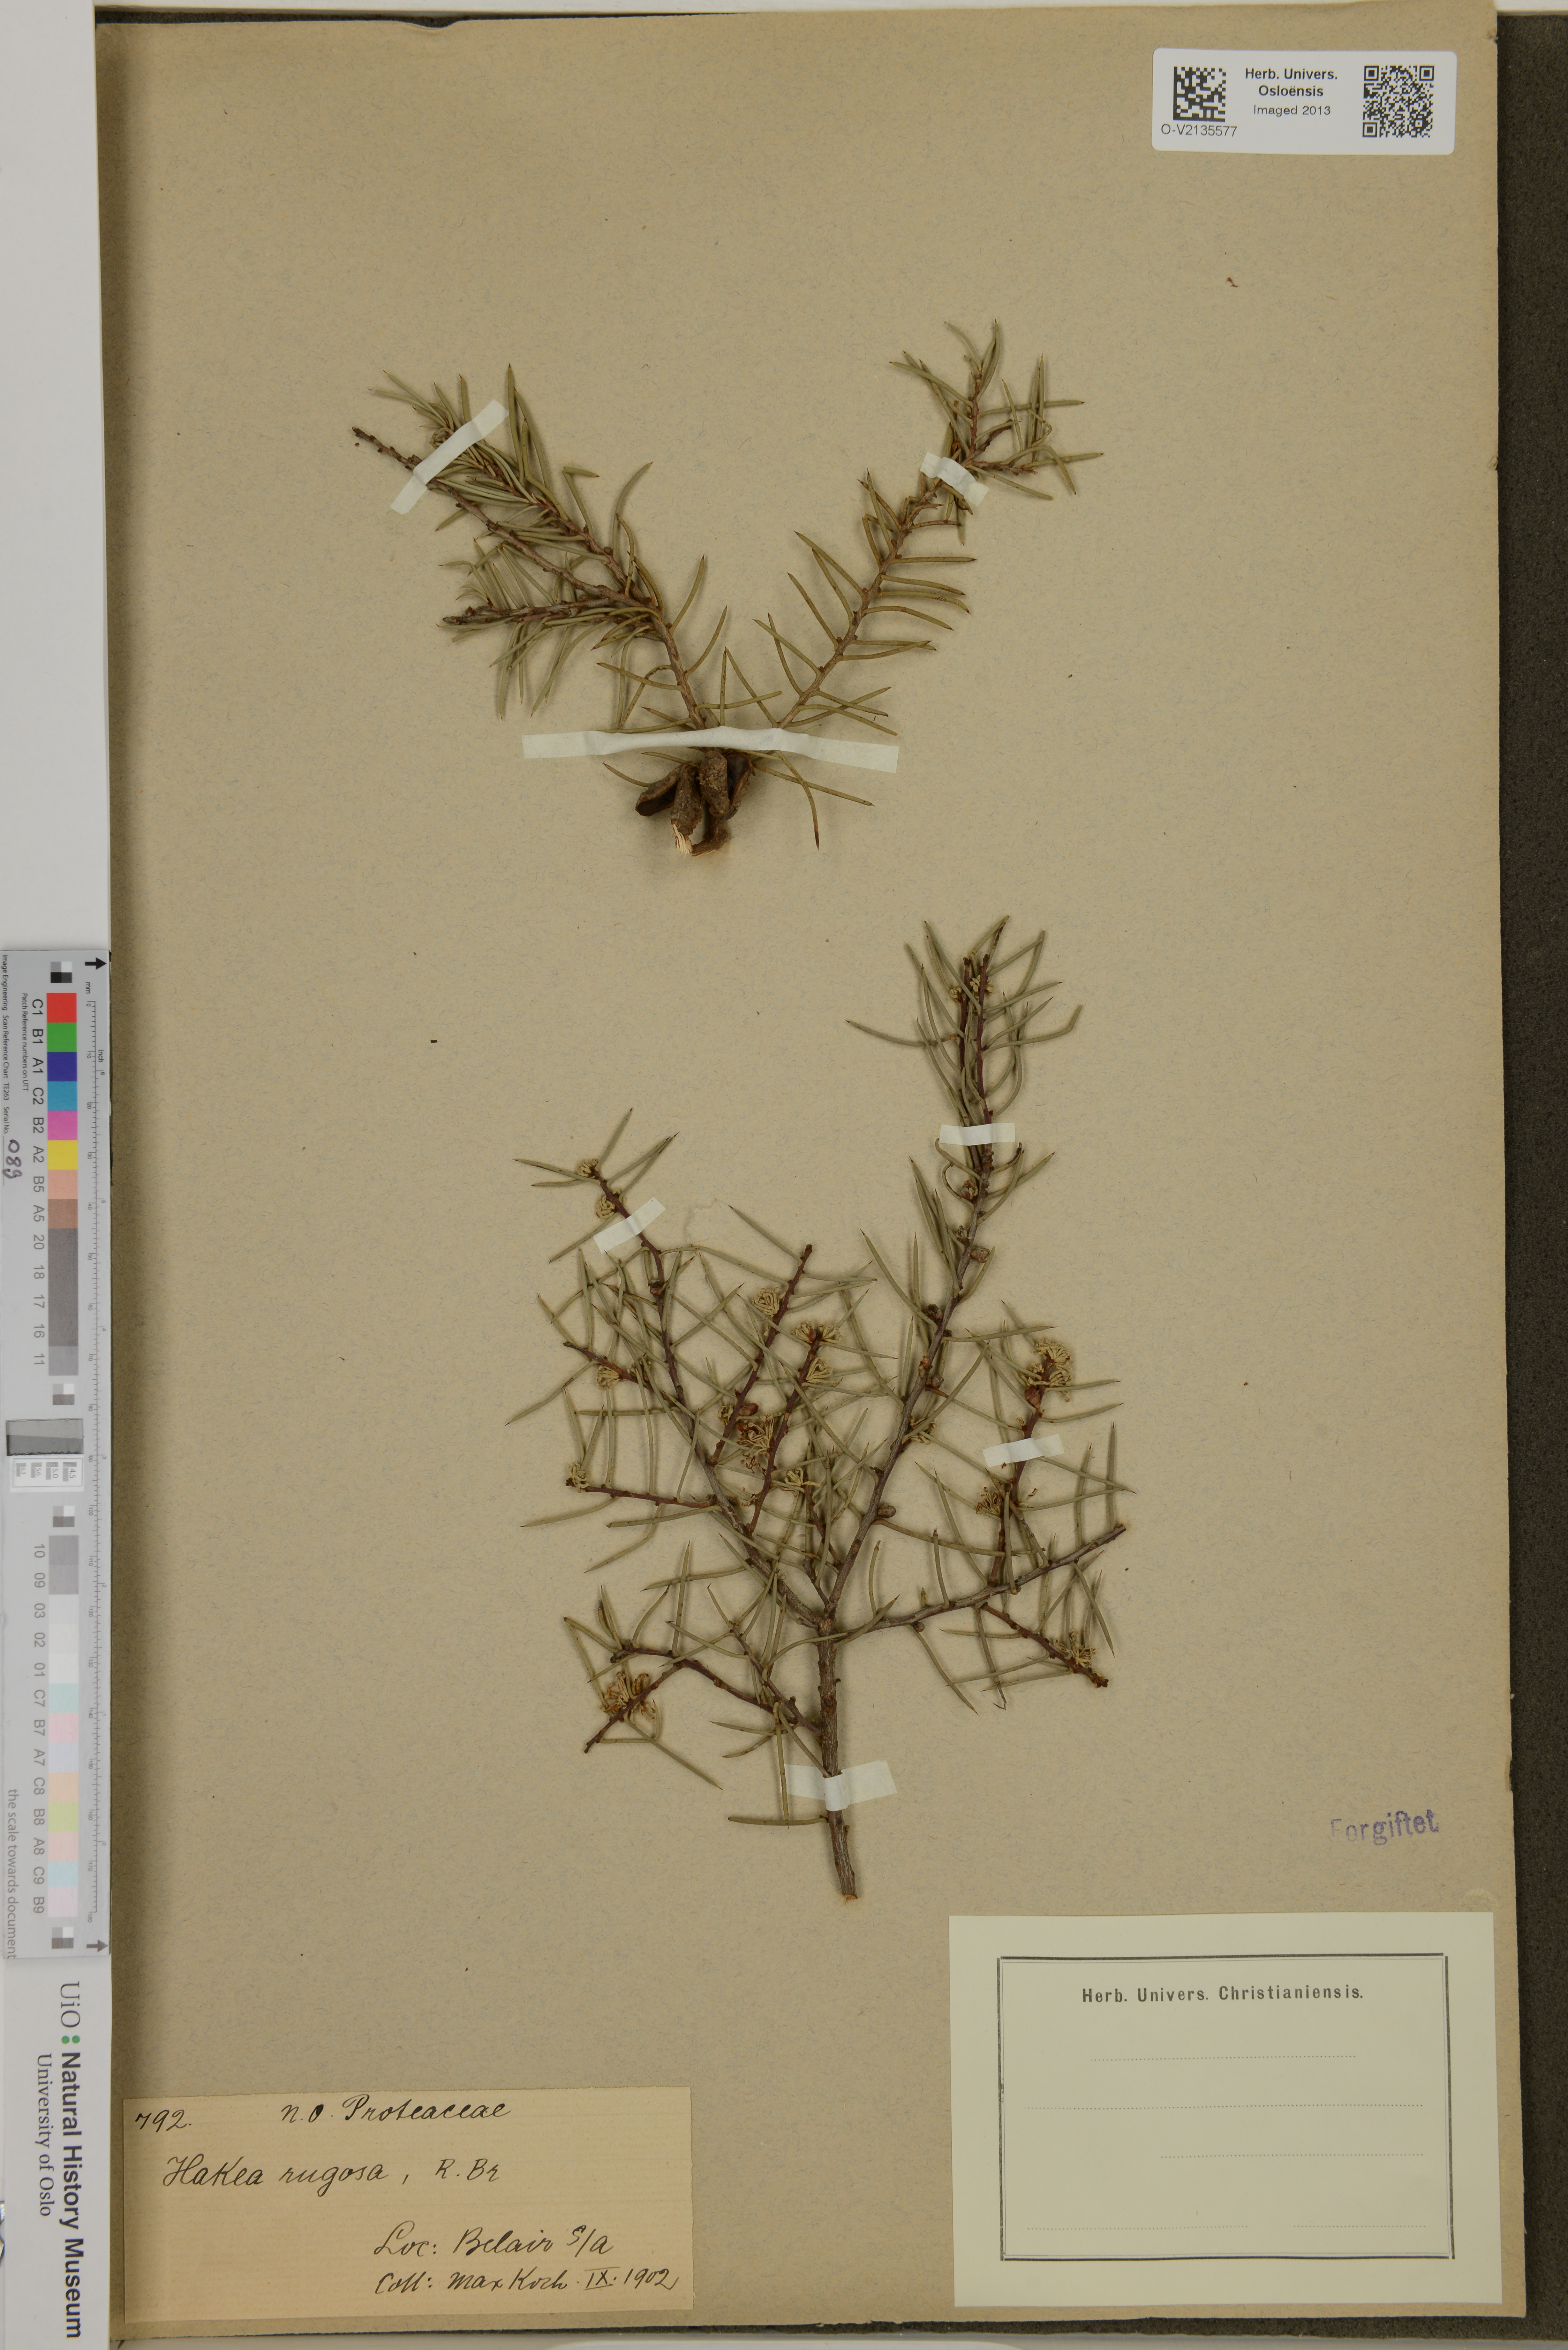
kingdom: Plantae
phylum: Tracheophyta
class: Magnoliopsida
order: Proteales
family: Proteaceae
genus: Hakea
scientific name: Hakea rugosa
